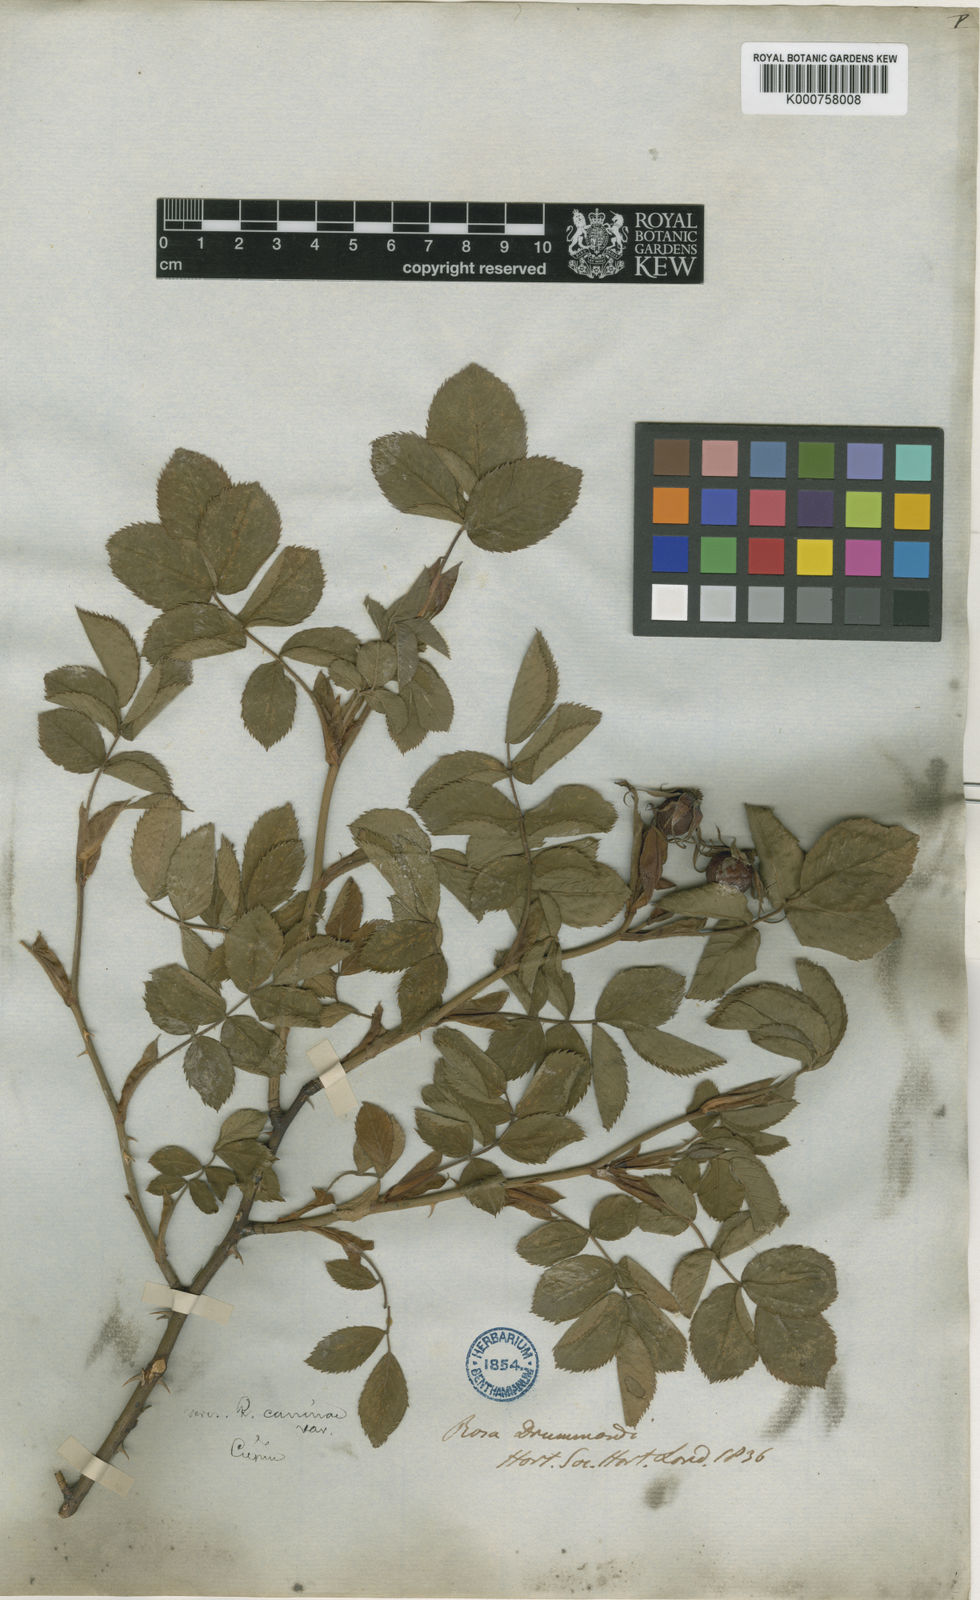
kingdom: Plantae
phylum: Tracheophyta
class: Magnoliopsida
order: Rosales
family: Rosaceae
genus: Rosa
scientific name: Rosa
